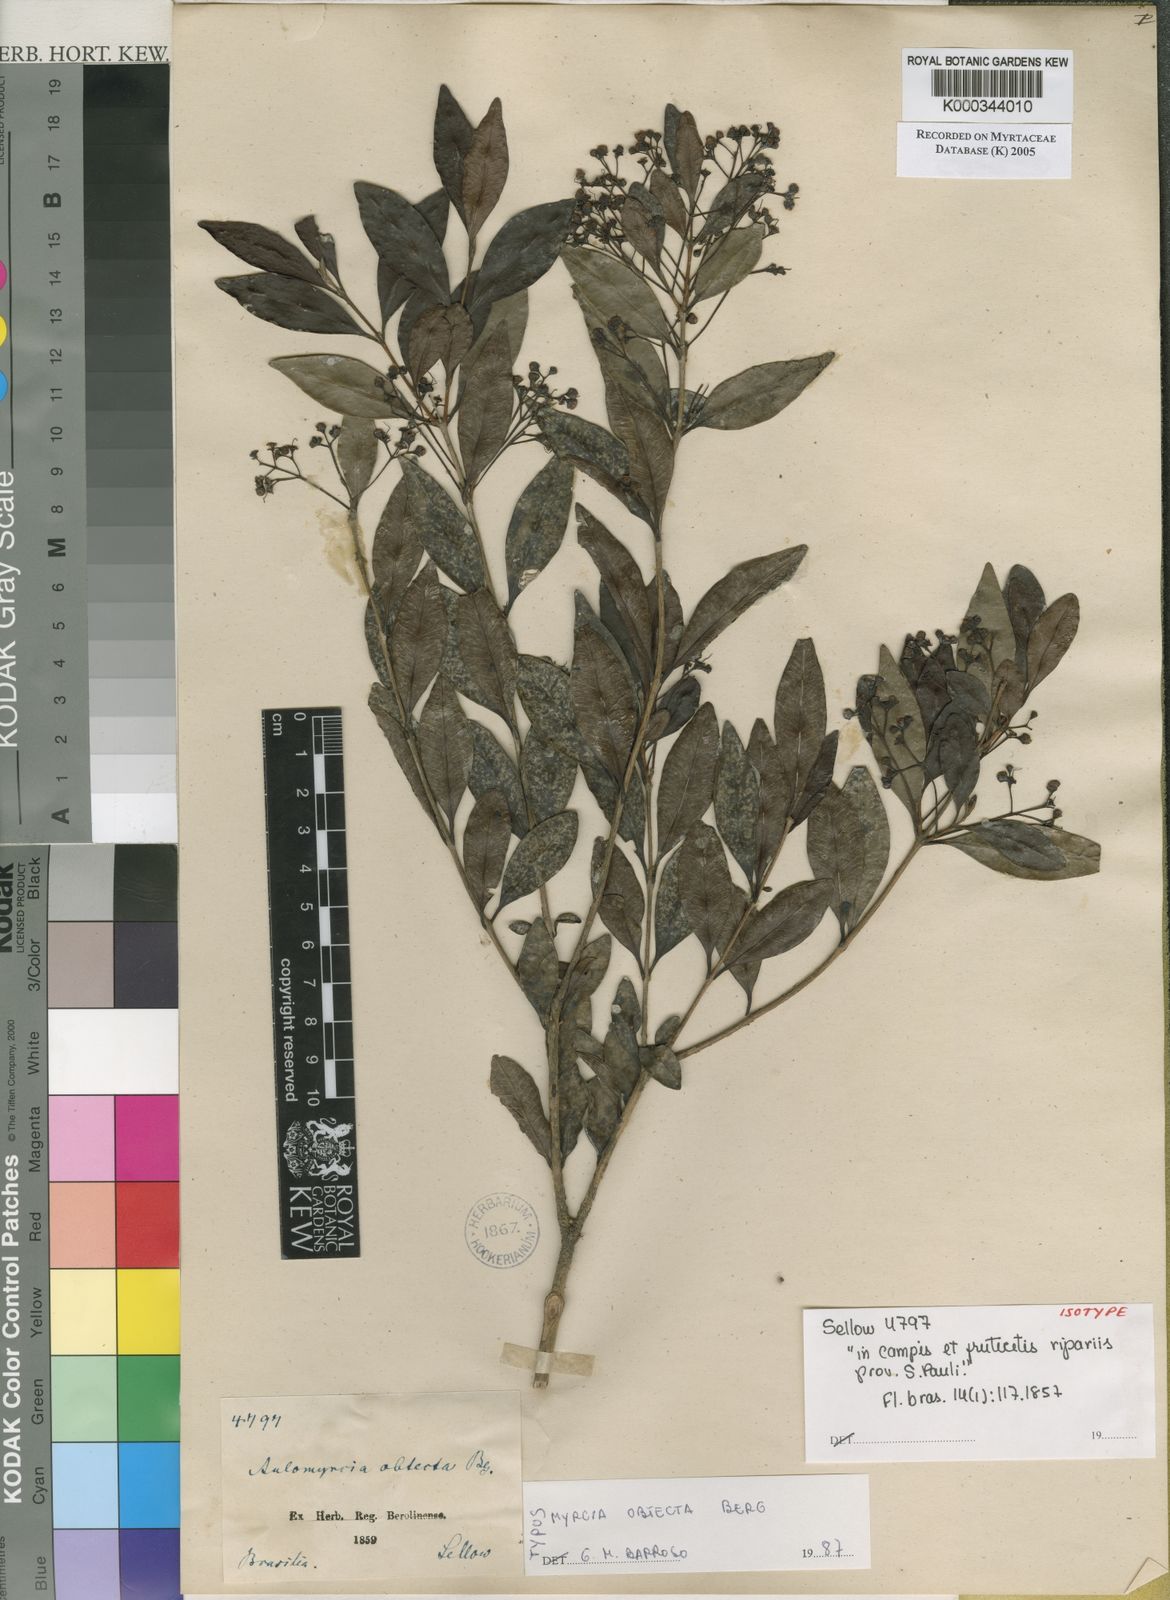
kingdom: Plantae
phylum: Tracheophyta
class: Magnoliopsida
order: Myrtales
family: Myrtaceae
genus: Myrcia
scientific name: Myrcia guianensis
